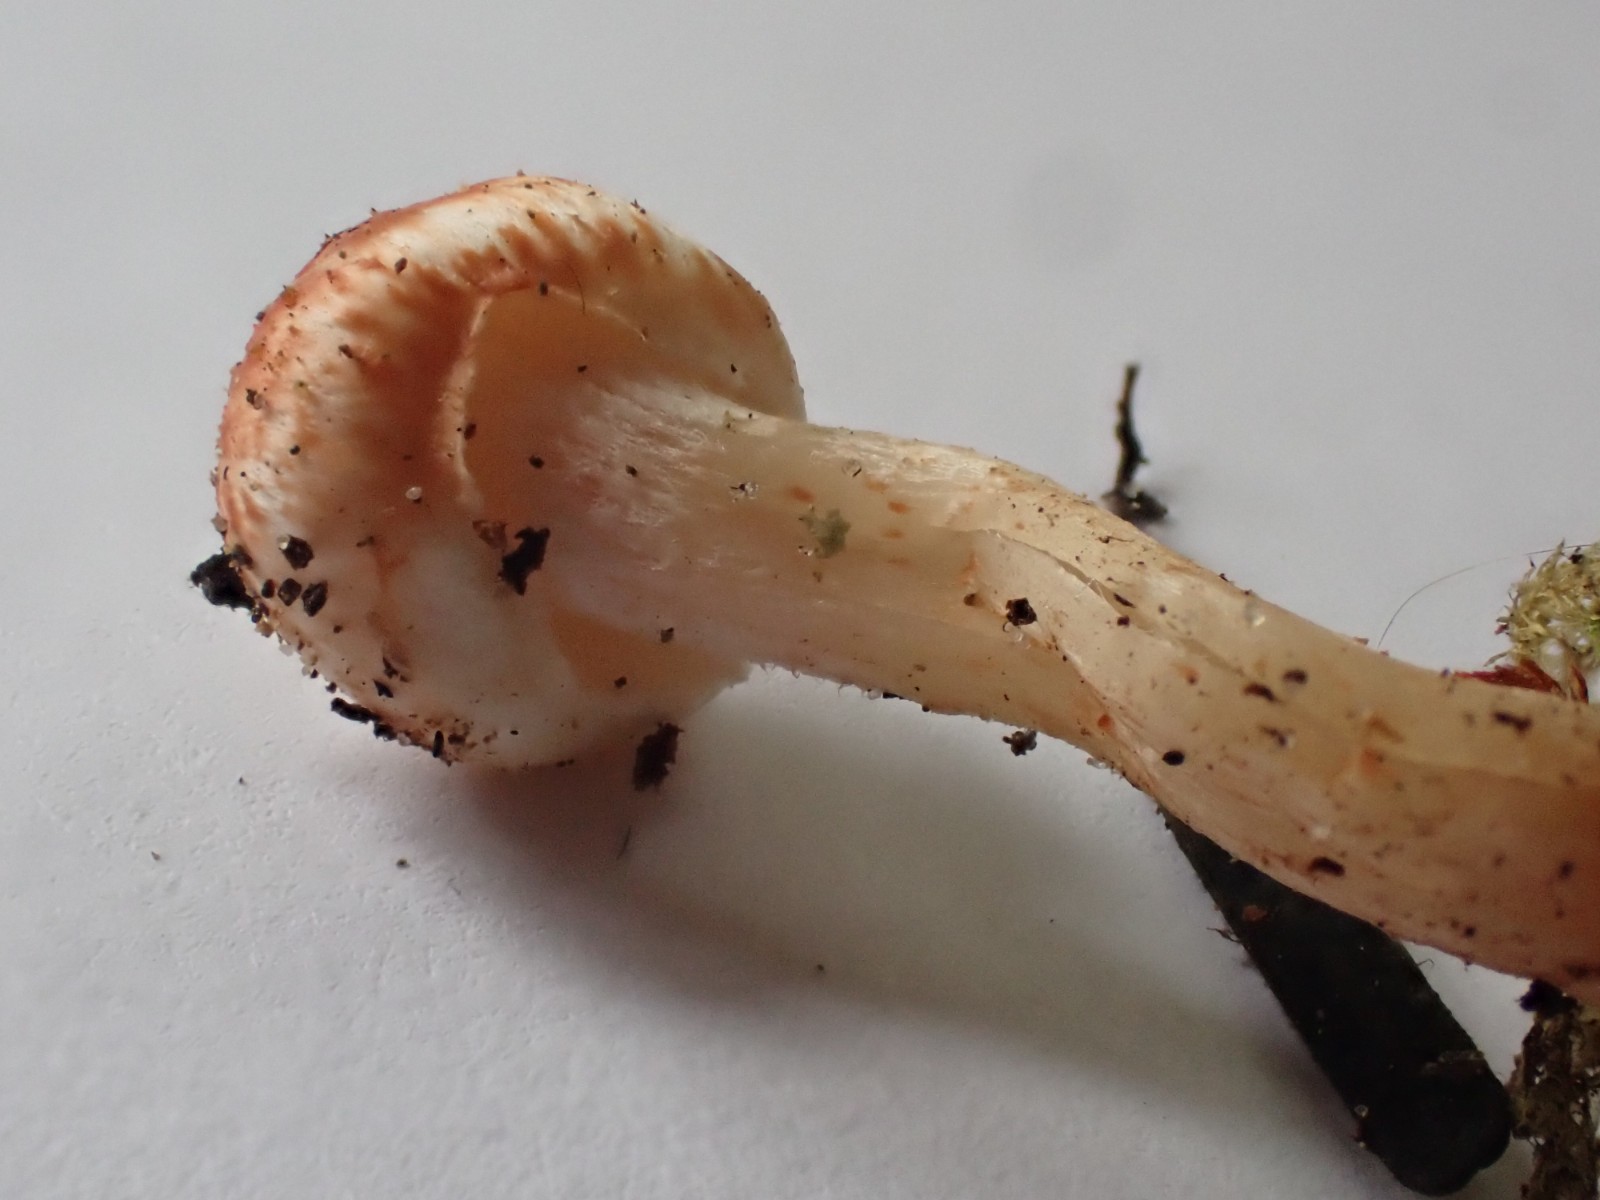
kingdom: Fungi
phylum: Basidiomycota
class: Agaricomycetes
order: Agaricales
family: Inocybaceae
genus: Inocybe
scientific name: Inocybe
